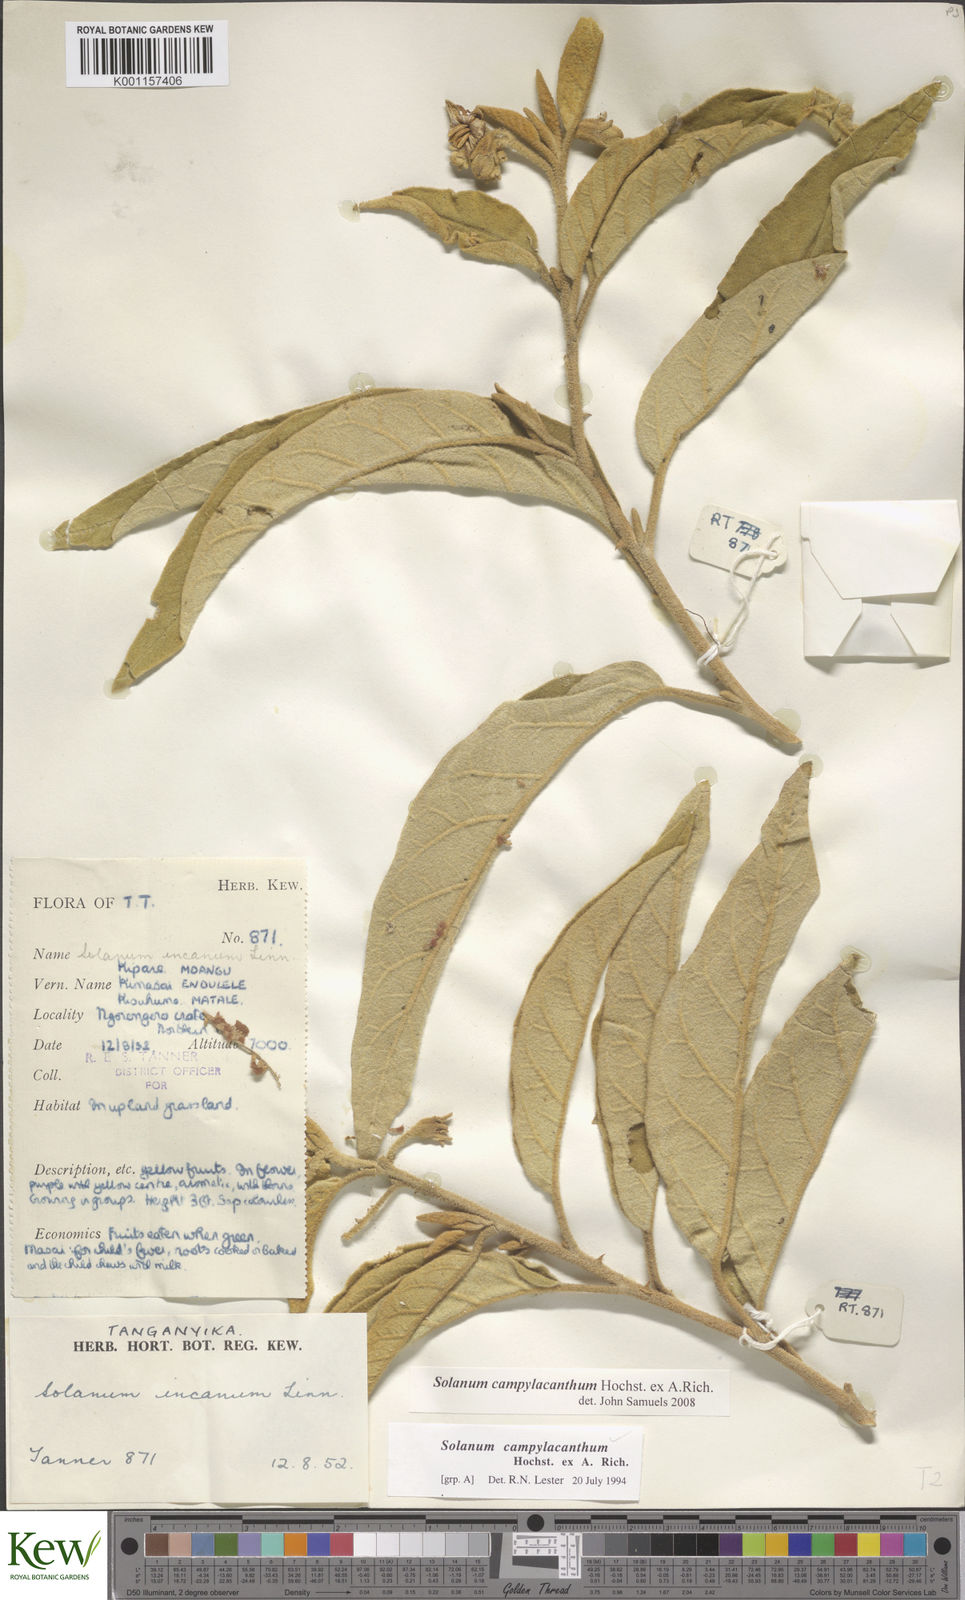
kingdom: Plantae
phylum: Tracheophyta
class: Magnoliopsida
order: Solanales
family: Solanaceae
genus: Solanum
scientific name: Solanum campylacanthum
